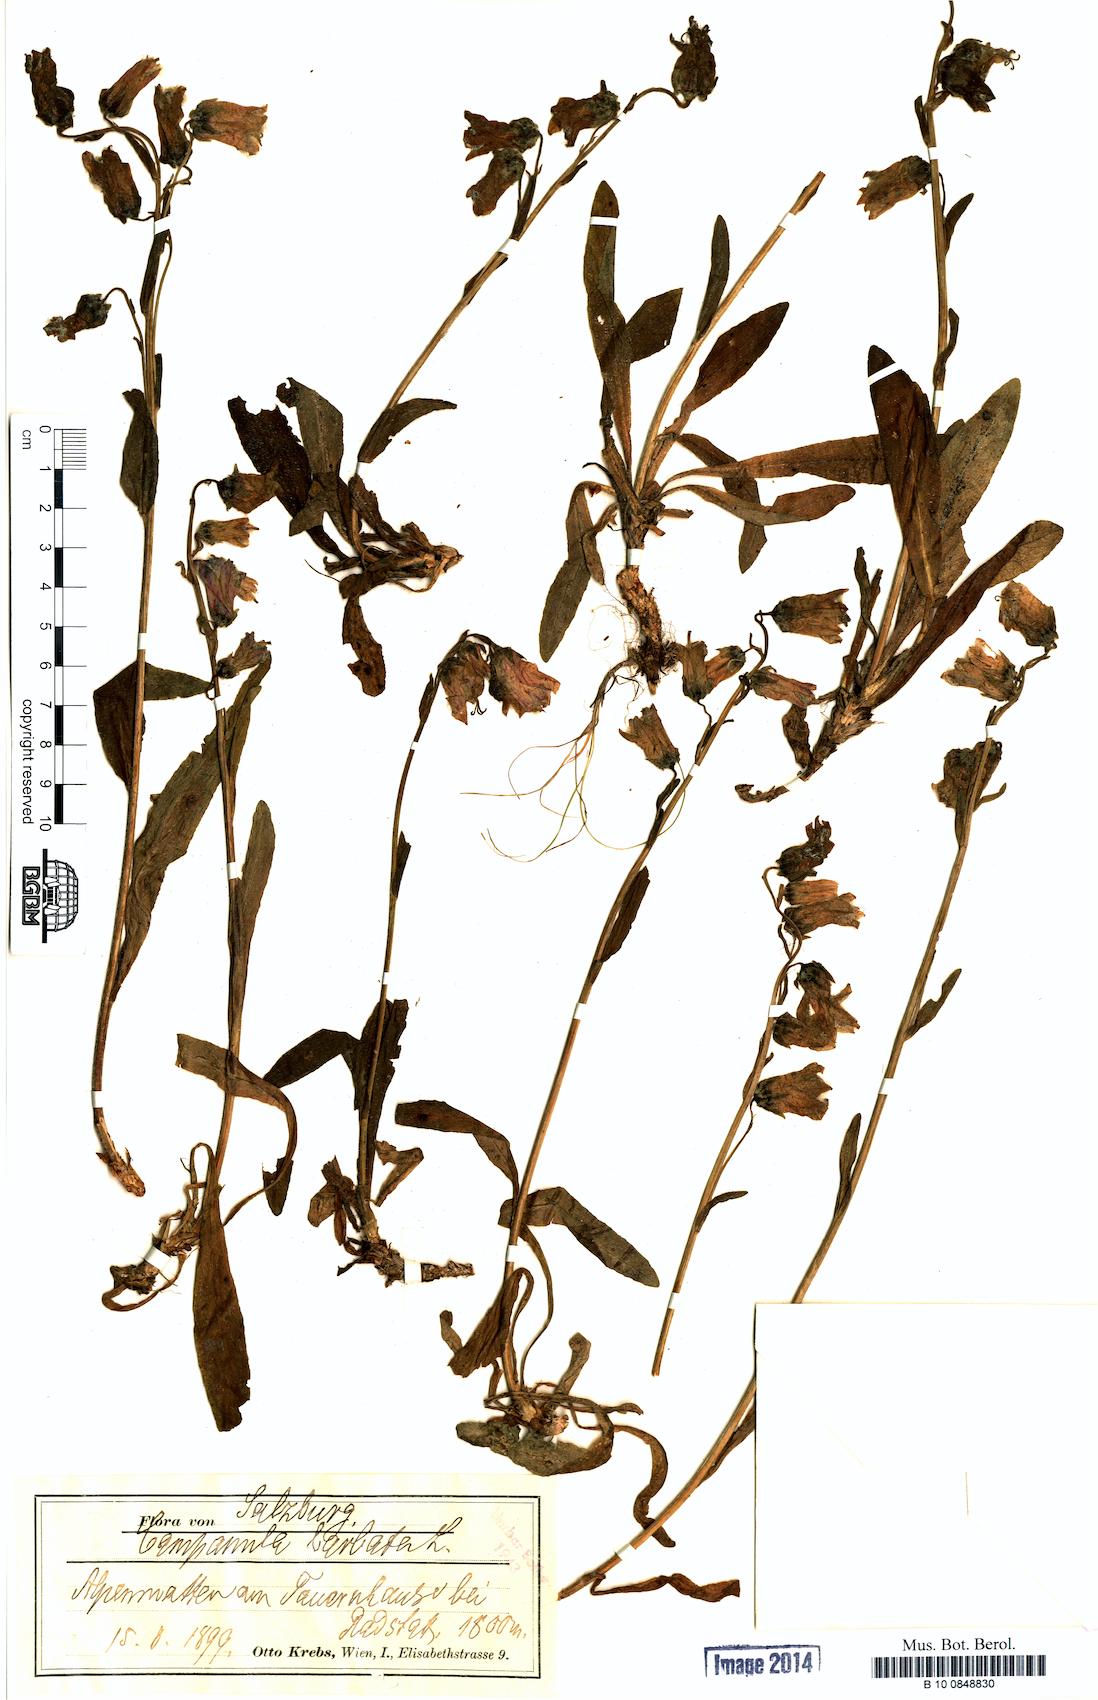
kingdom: Plantae
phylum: Tracheophyta
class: Magnoliopsida
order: Asterales
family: Campanulaceae
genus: Campanula
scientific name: Campanula barbata
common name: Bearded bellflower
